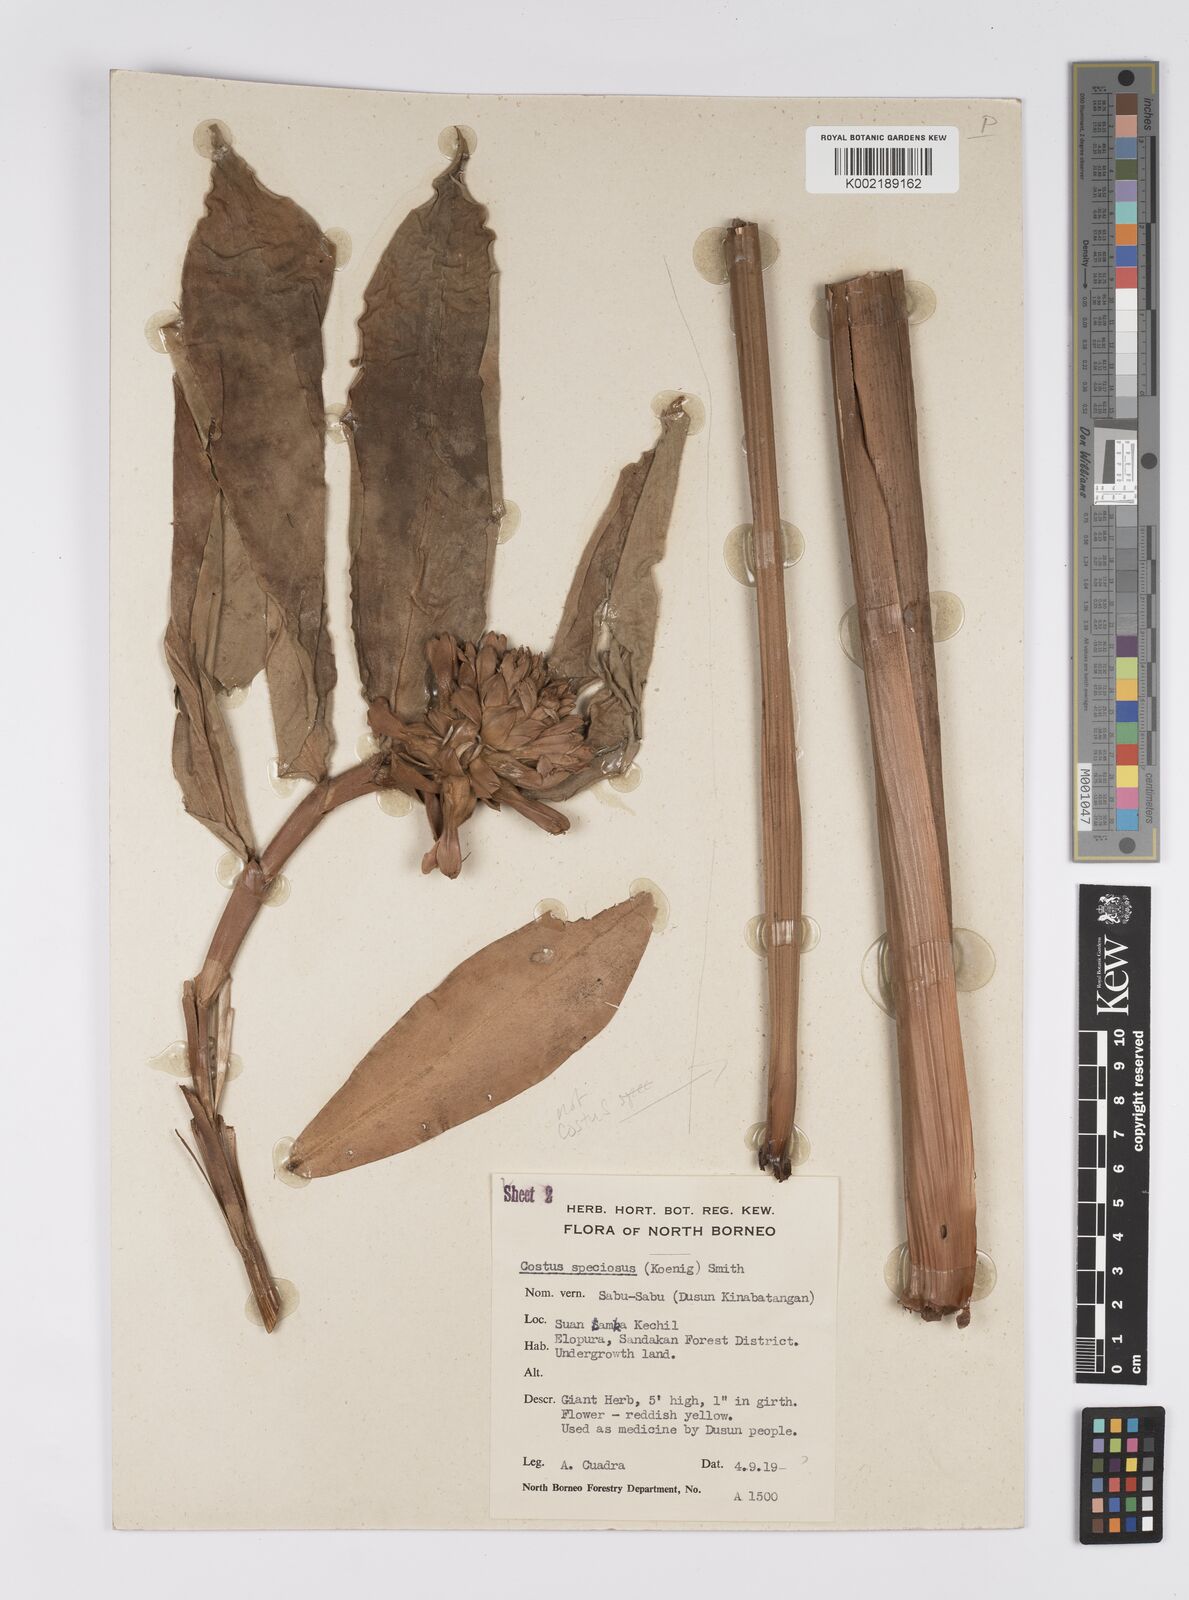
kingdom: Plantae
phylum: Tracheophyta
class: Liliopsida
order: Zingiberales
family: Costaceae
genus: Hellenia
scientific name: Hellenia speciosa
